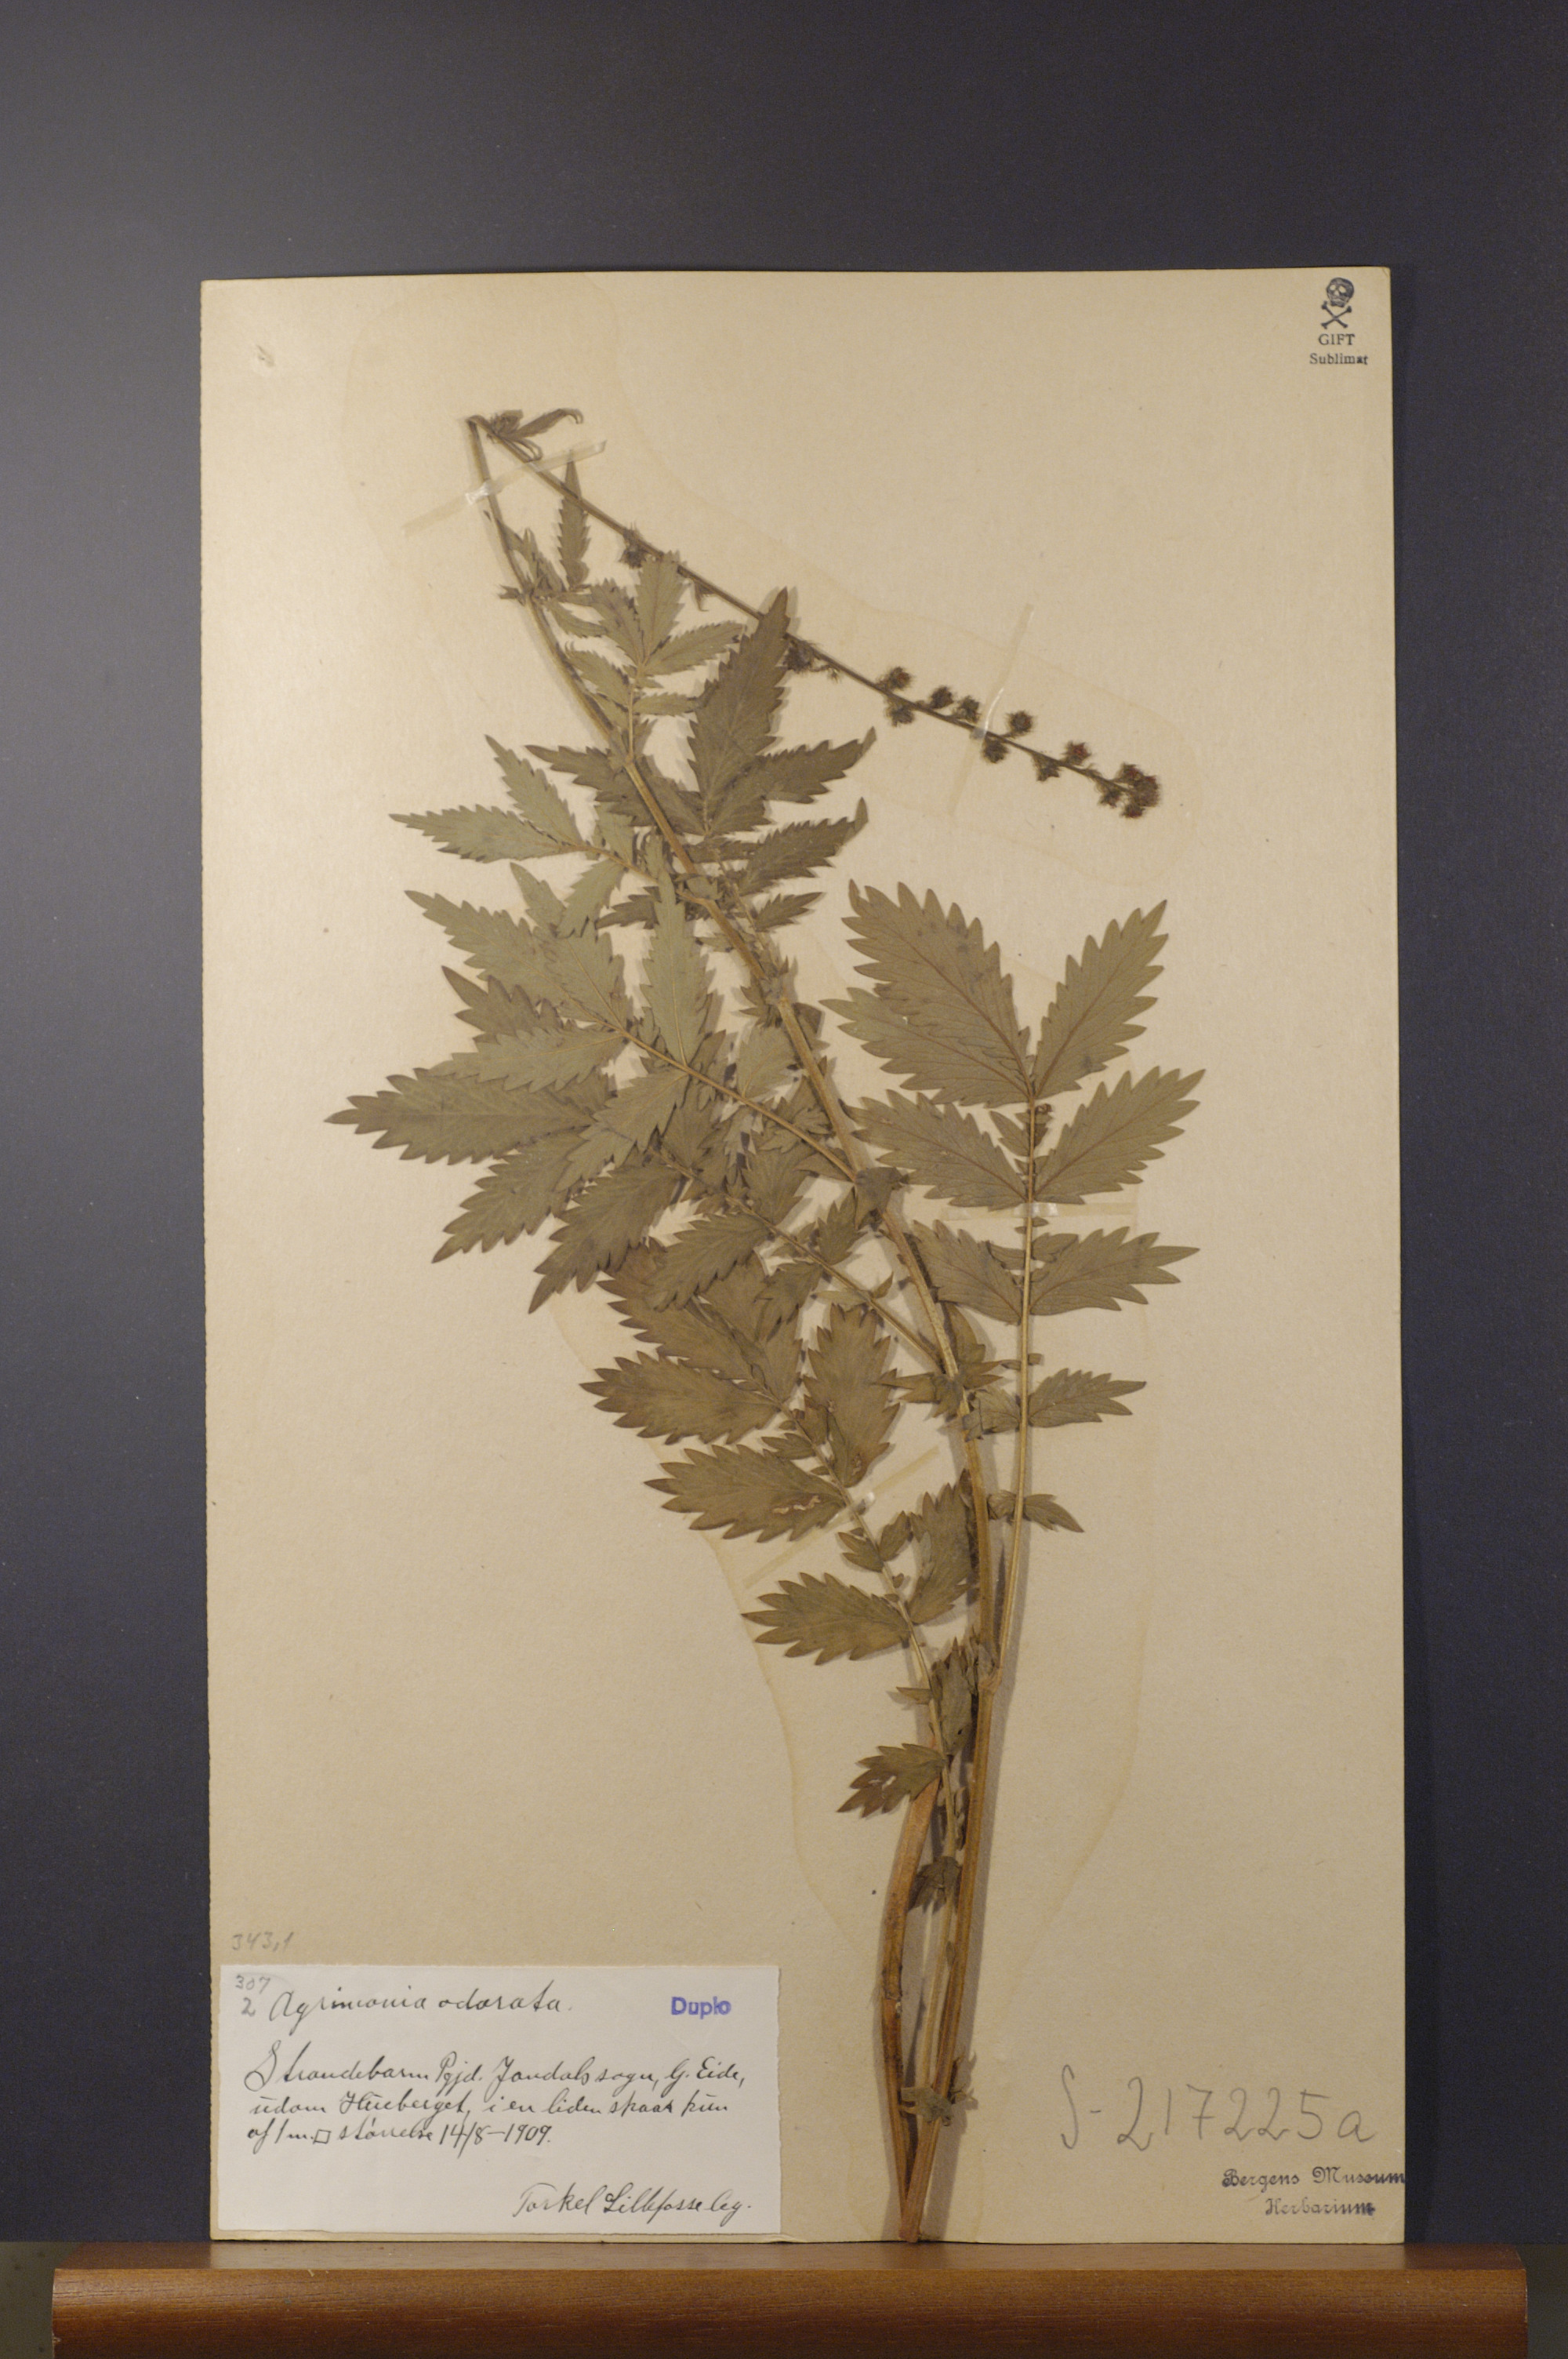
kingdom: Plantae
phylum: Tracheophyta
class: Magnoliopsida
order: Rosales
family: Rosaceae
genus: Agrimonia
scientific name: Agrimonia procera
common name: Fragrant agrimony
